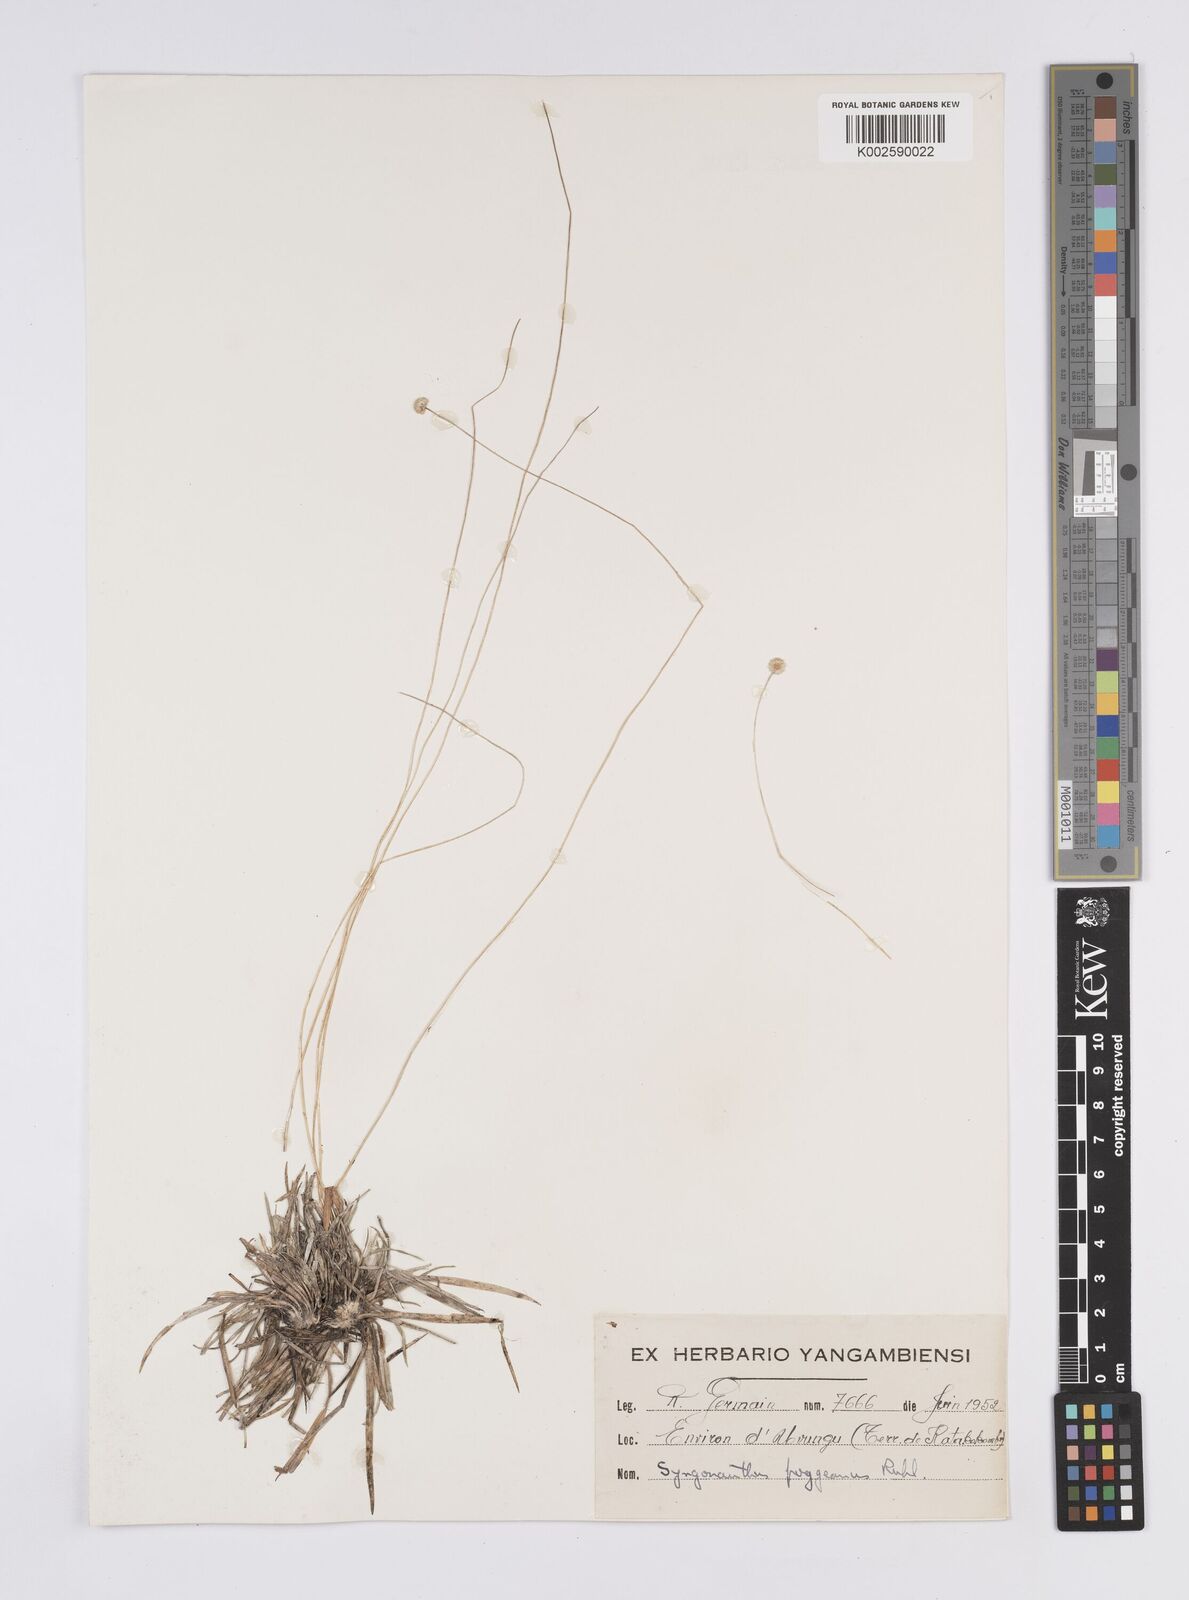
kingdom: Plantae
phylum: Tracheophyta
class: Liliopsida
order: Poales
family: Eriocaulaceae
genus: Syngonanthus
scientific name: Syngonanthus poggeanus
